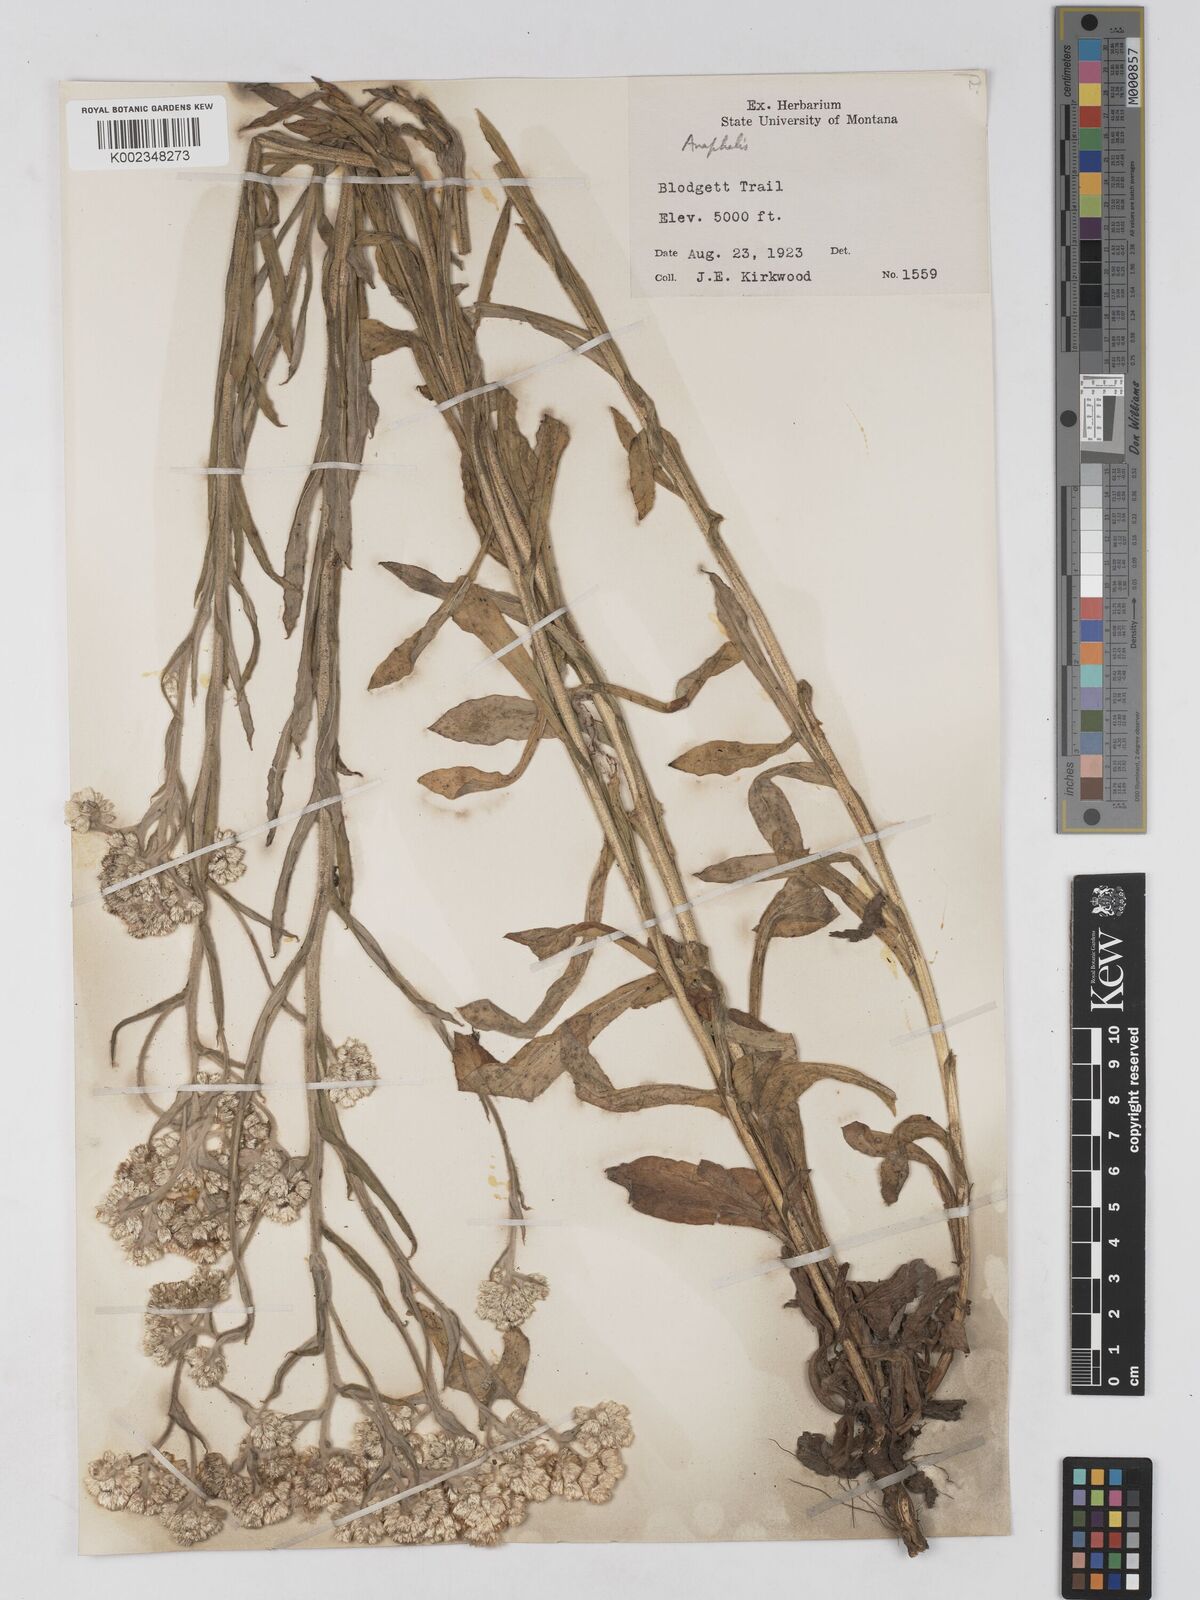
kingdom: Plantae
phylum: Tracheophyta
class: Magnoliopsida
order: Asterales
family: Asteraceae
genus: Anaphalis
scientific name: Anaphalis
